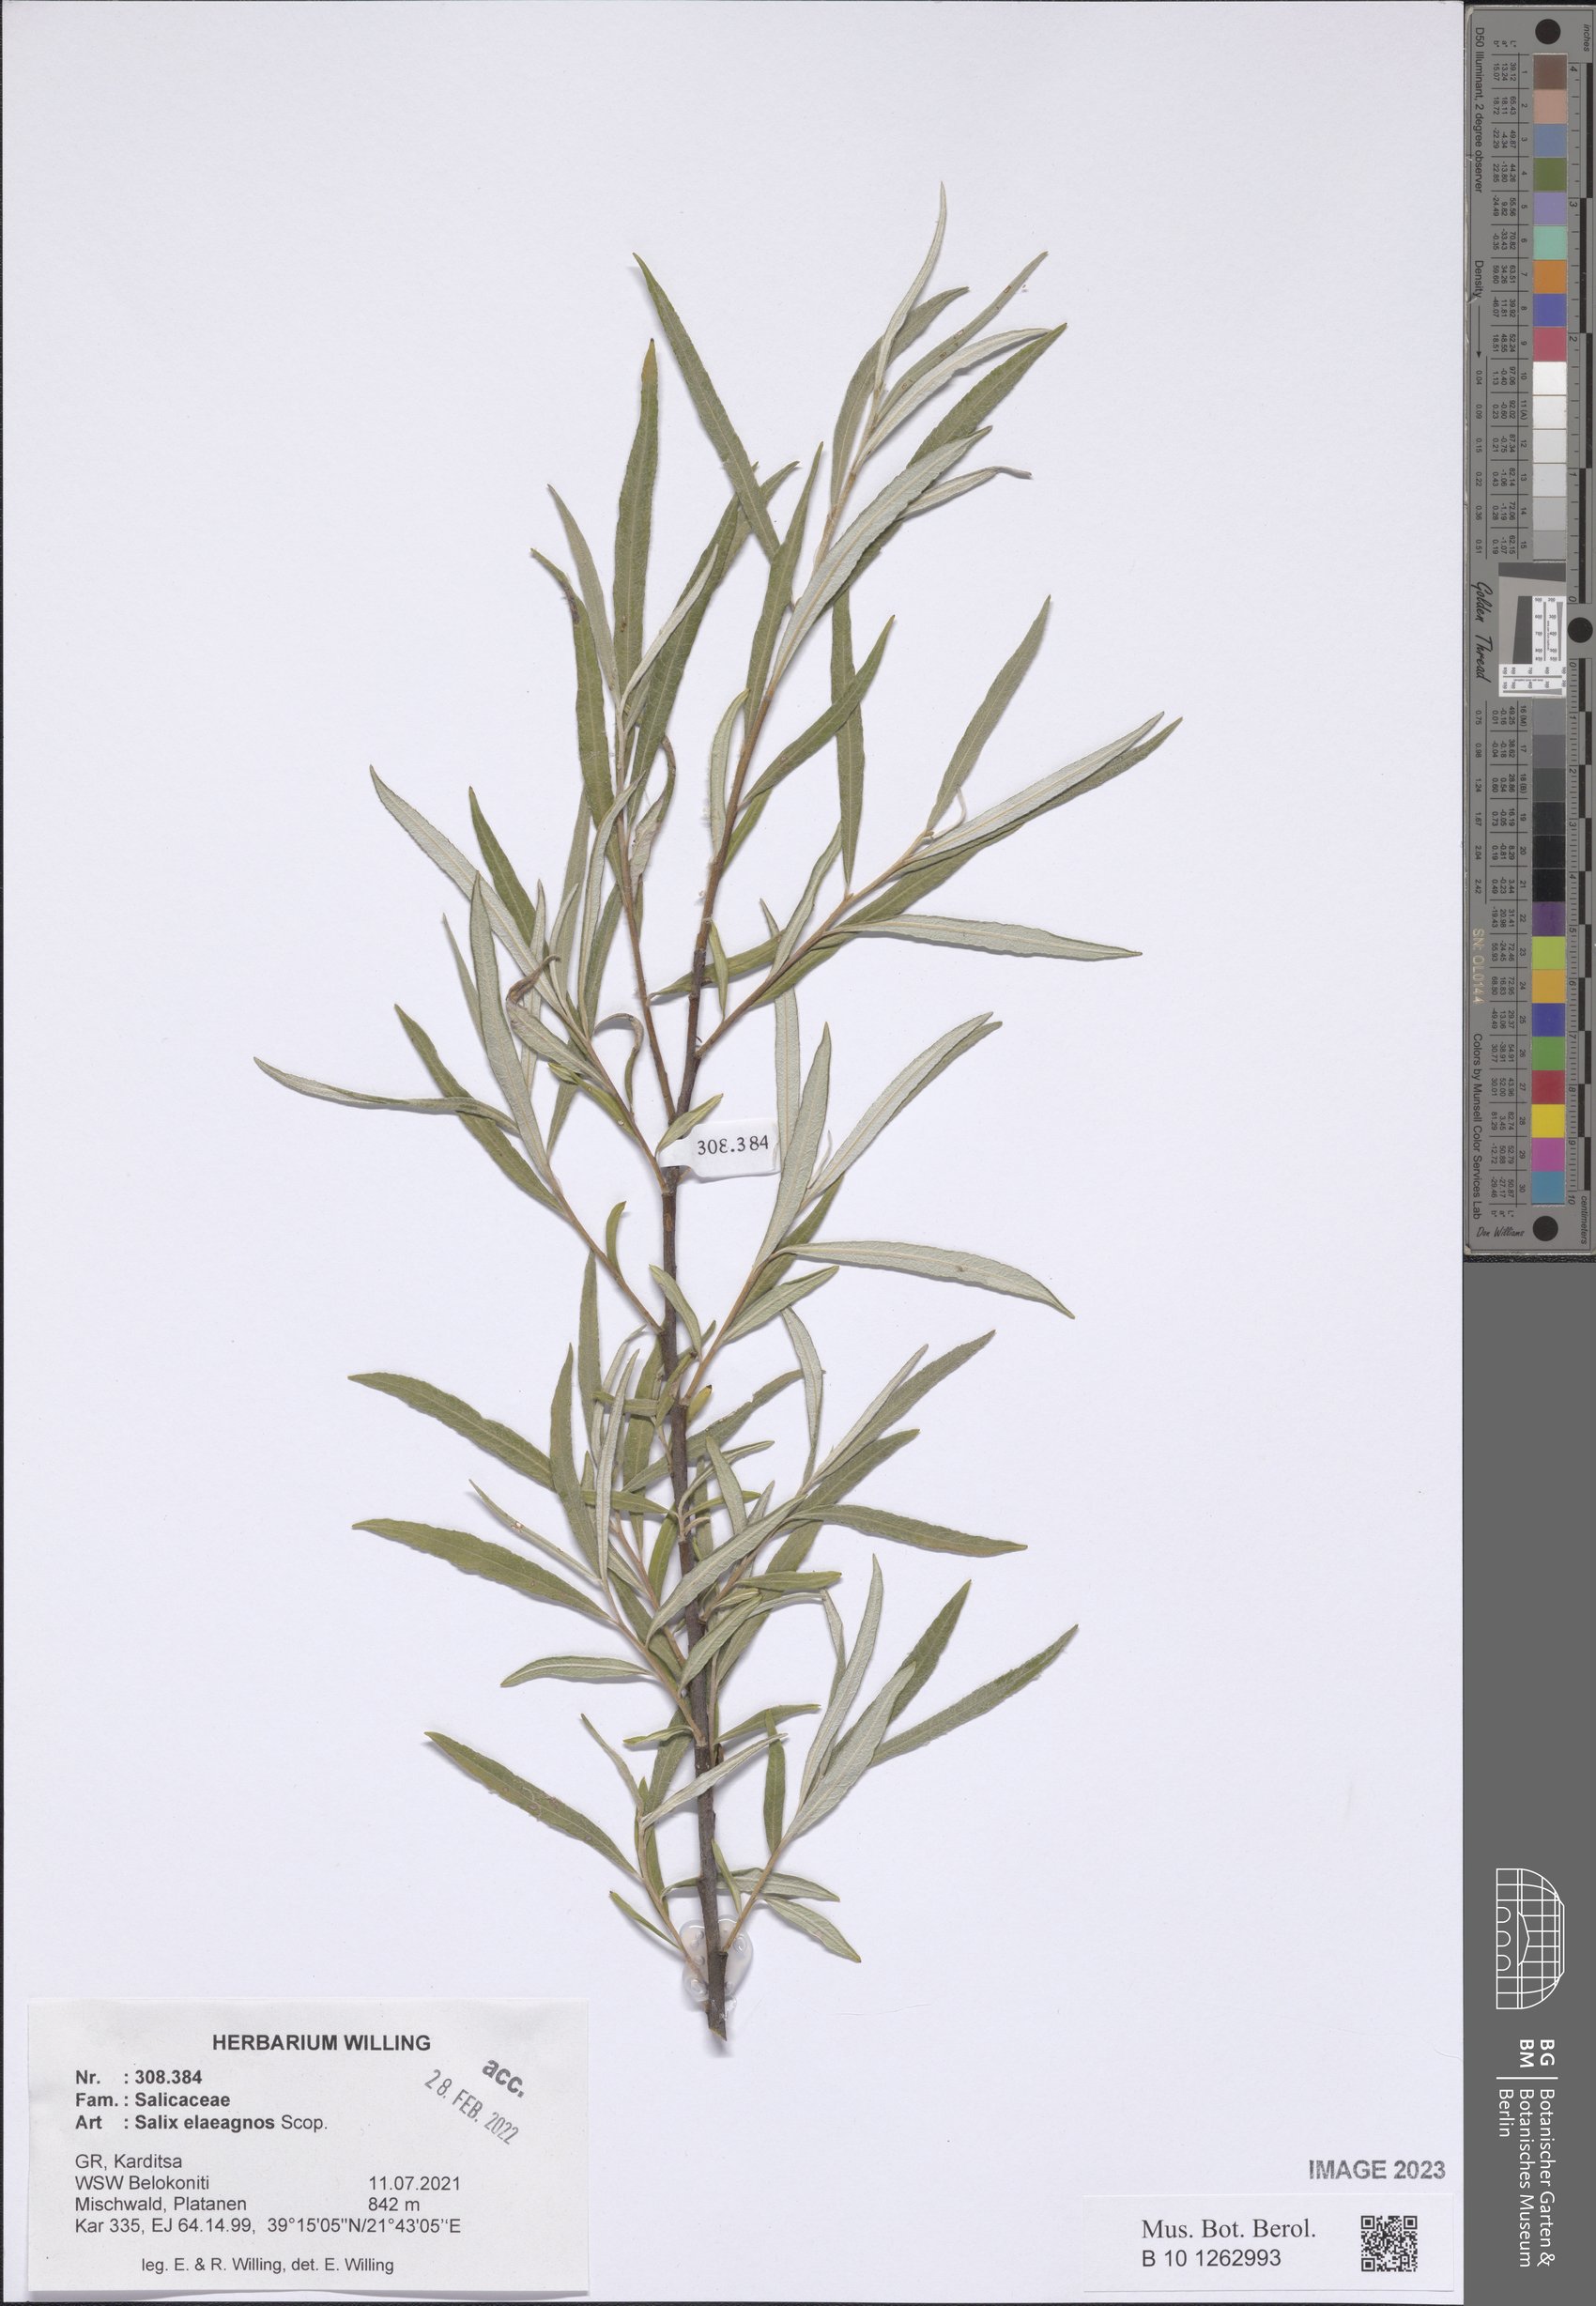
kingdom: Plantae
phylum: Tracheophyta
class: Magnoliopsida
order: Malpighiales
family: Salicaceae
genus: Salix
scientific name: Salix eleagnos
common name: Elaeagnus willow
